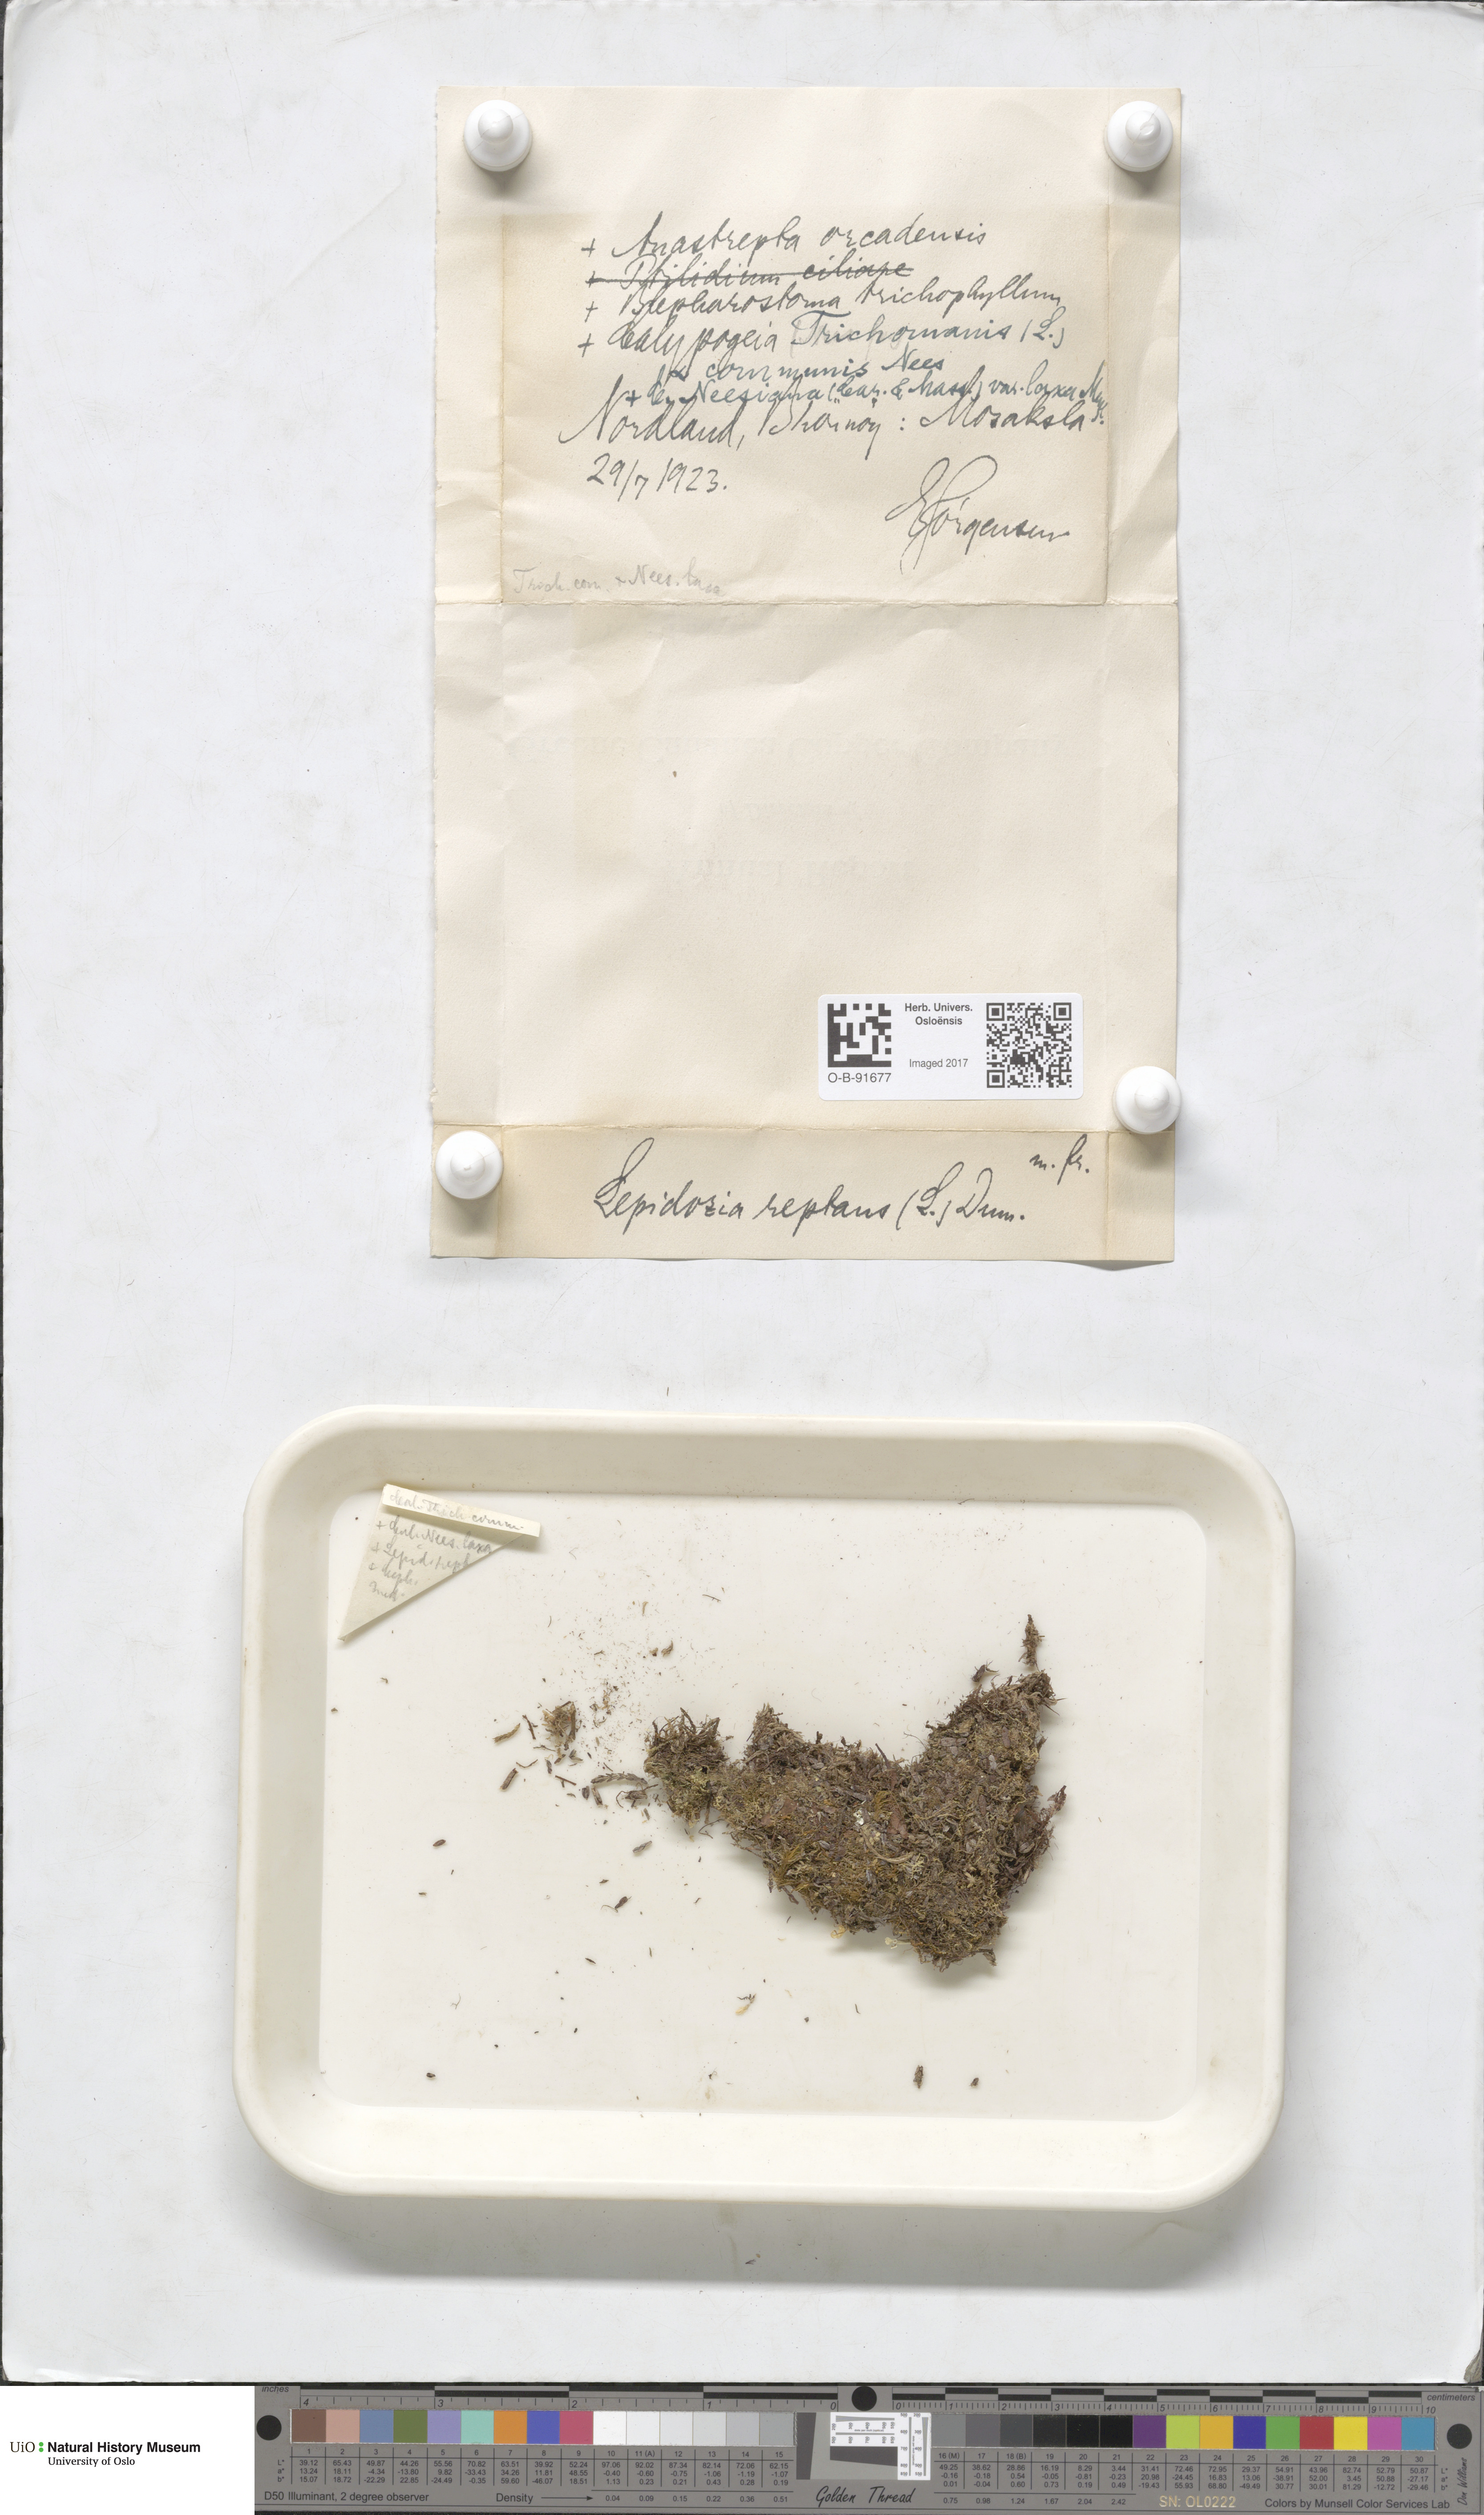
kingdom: Plantae
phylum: Marchantiophyta
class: Jungermanniopsida
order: Jungermanniales
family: Lepidoziaceae
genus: Lepidozia
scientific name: Lepidozia reptans
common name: Creeping fingerwort
